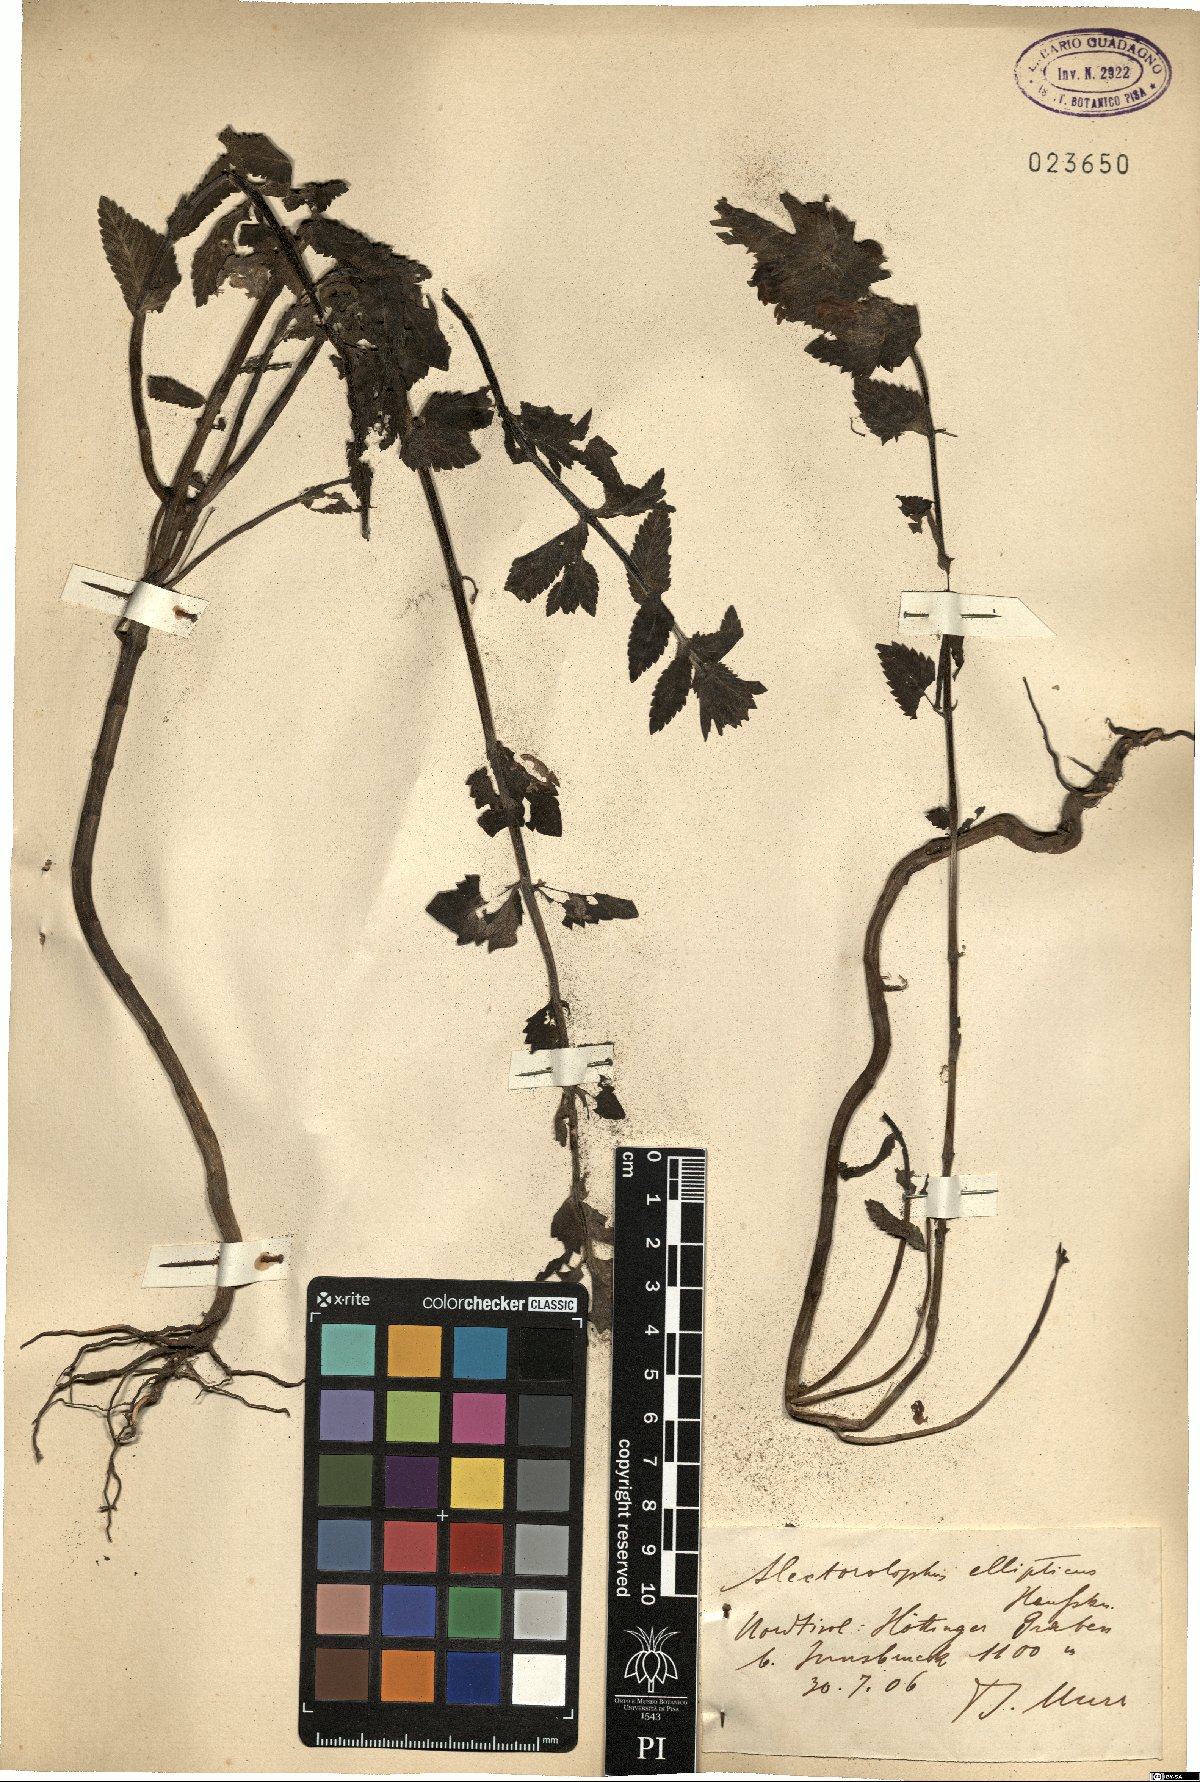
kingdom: Plantae
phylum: Tracheophyta
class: Magnoliopsida
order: Lamiales
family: Orobanchaceae
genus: Rhinanthus
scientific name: Rhinanthus alectorolophus
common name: Greater yellow-rattle
